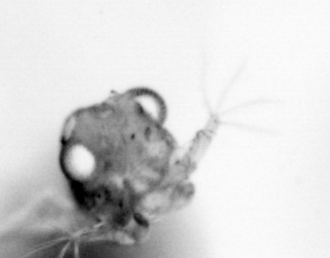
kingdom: Animalia
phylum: Arthropoda
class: Copepoda
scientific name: Copepoda
